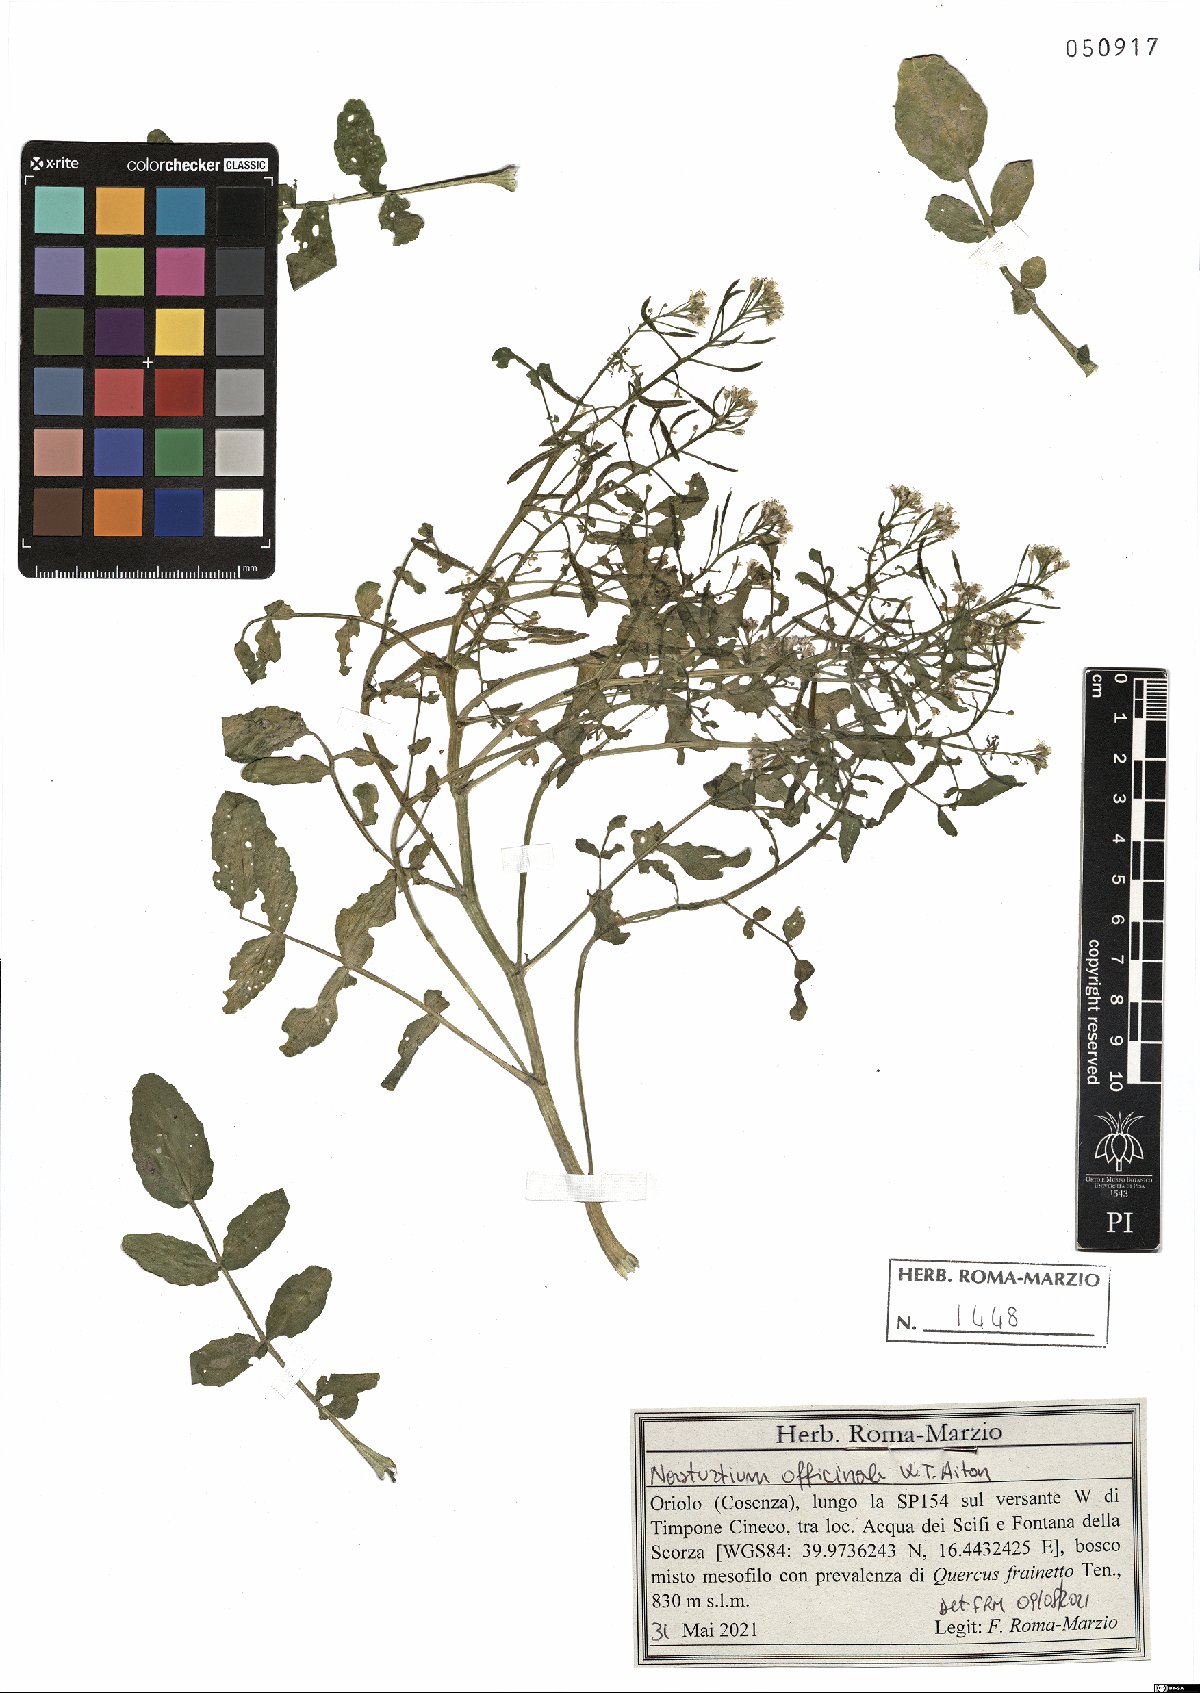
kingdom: Plantae
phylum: Tracheophyta
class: Magnoliopsida
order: Brassicales
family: Brassicaceae
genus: Nasturtium
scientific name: Nasturtium officinale
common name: Watercress
